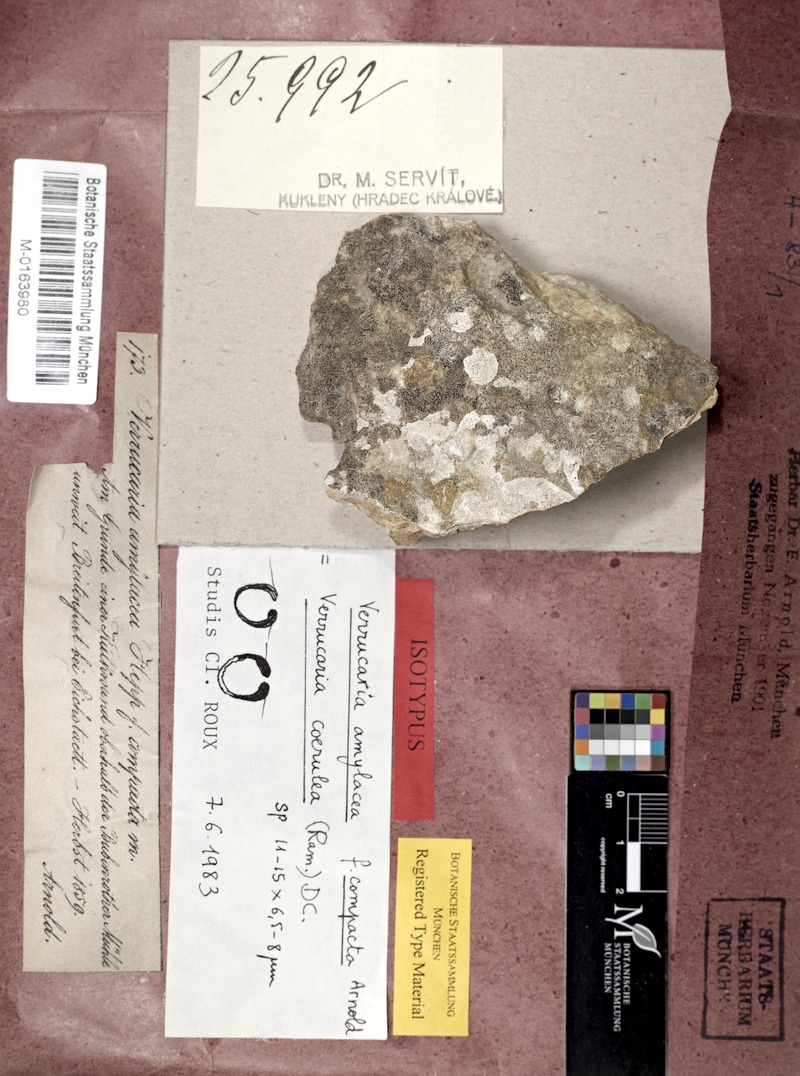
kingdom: Fungi
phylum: Ascomycota
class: Eurotiomycetes
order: Verrucariales
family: Verrucariaceae
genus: Verrucaria
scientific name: Verrucaria amylacea
